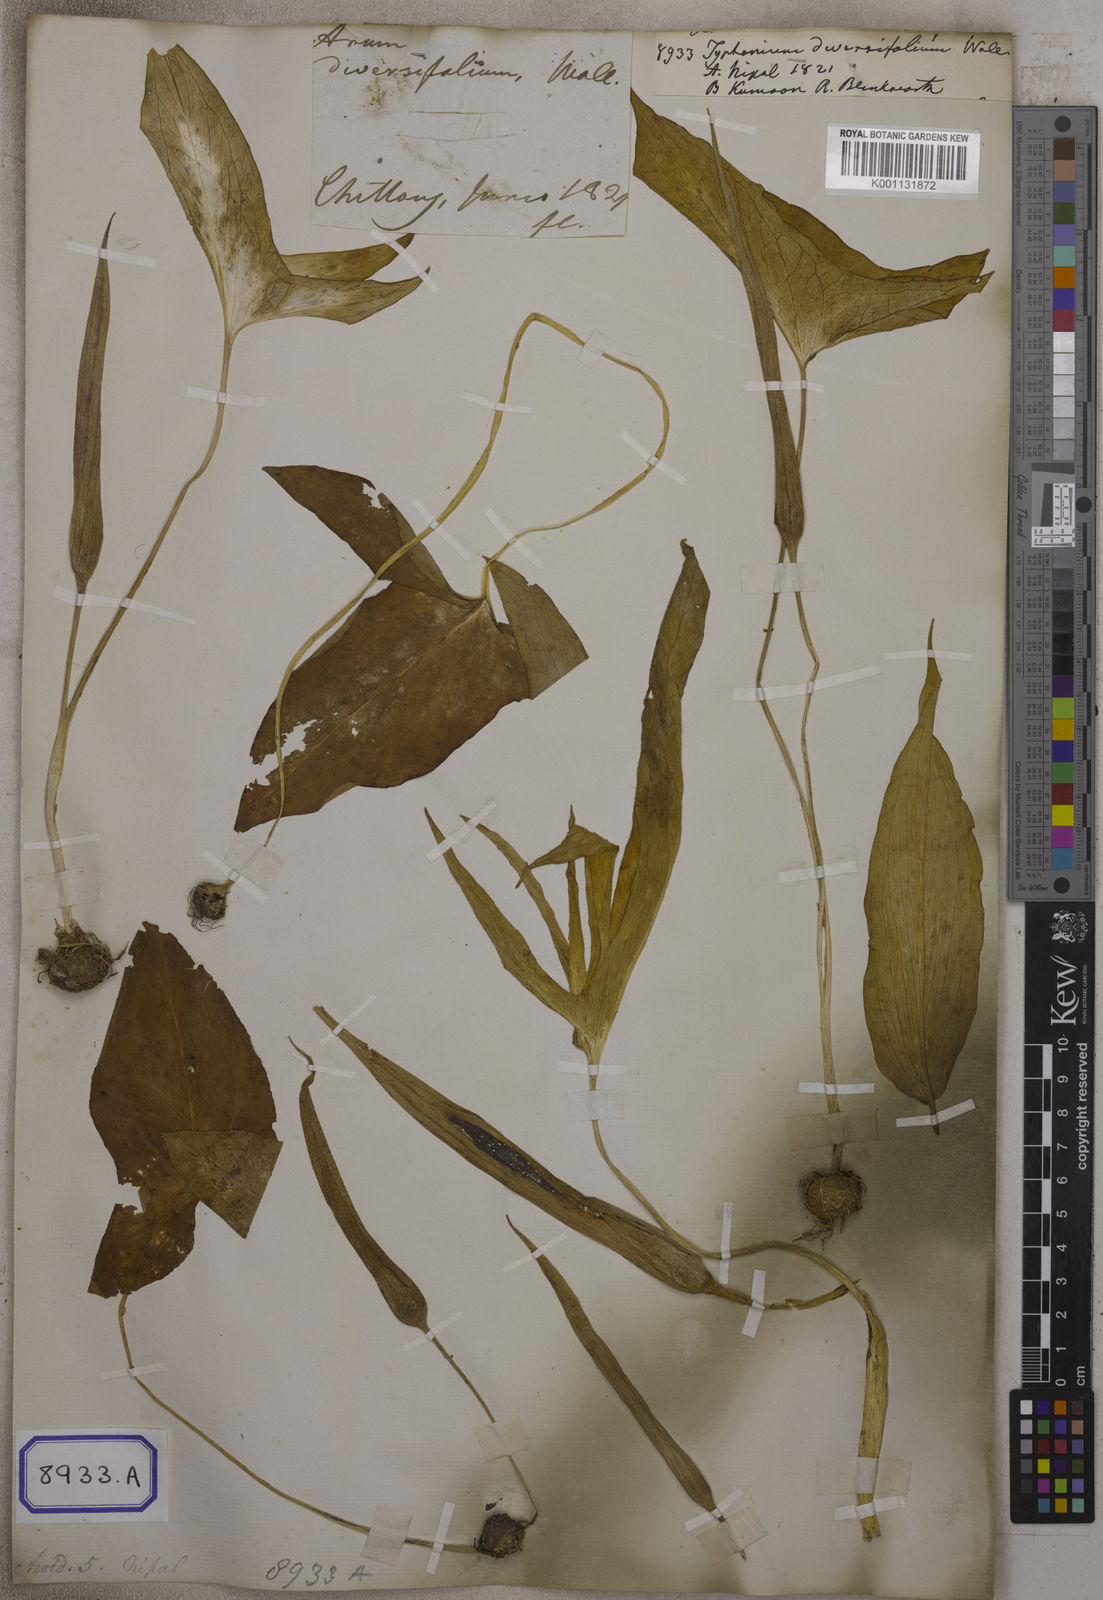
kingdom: Plantae
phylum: Tracheophyta
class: Liliopsida
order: Alismatales
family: Araceae
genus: Typhonium
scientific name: Typhonium
